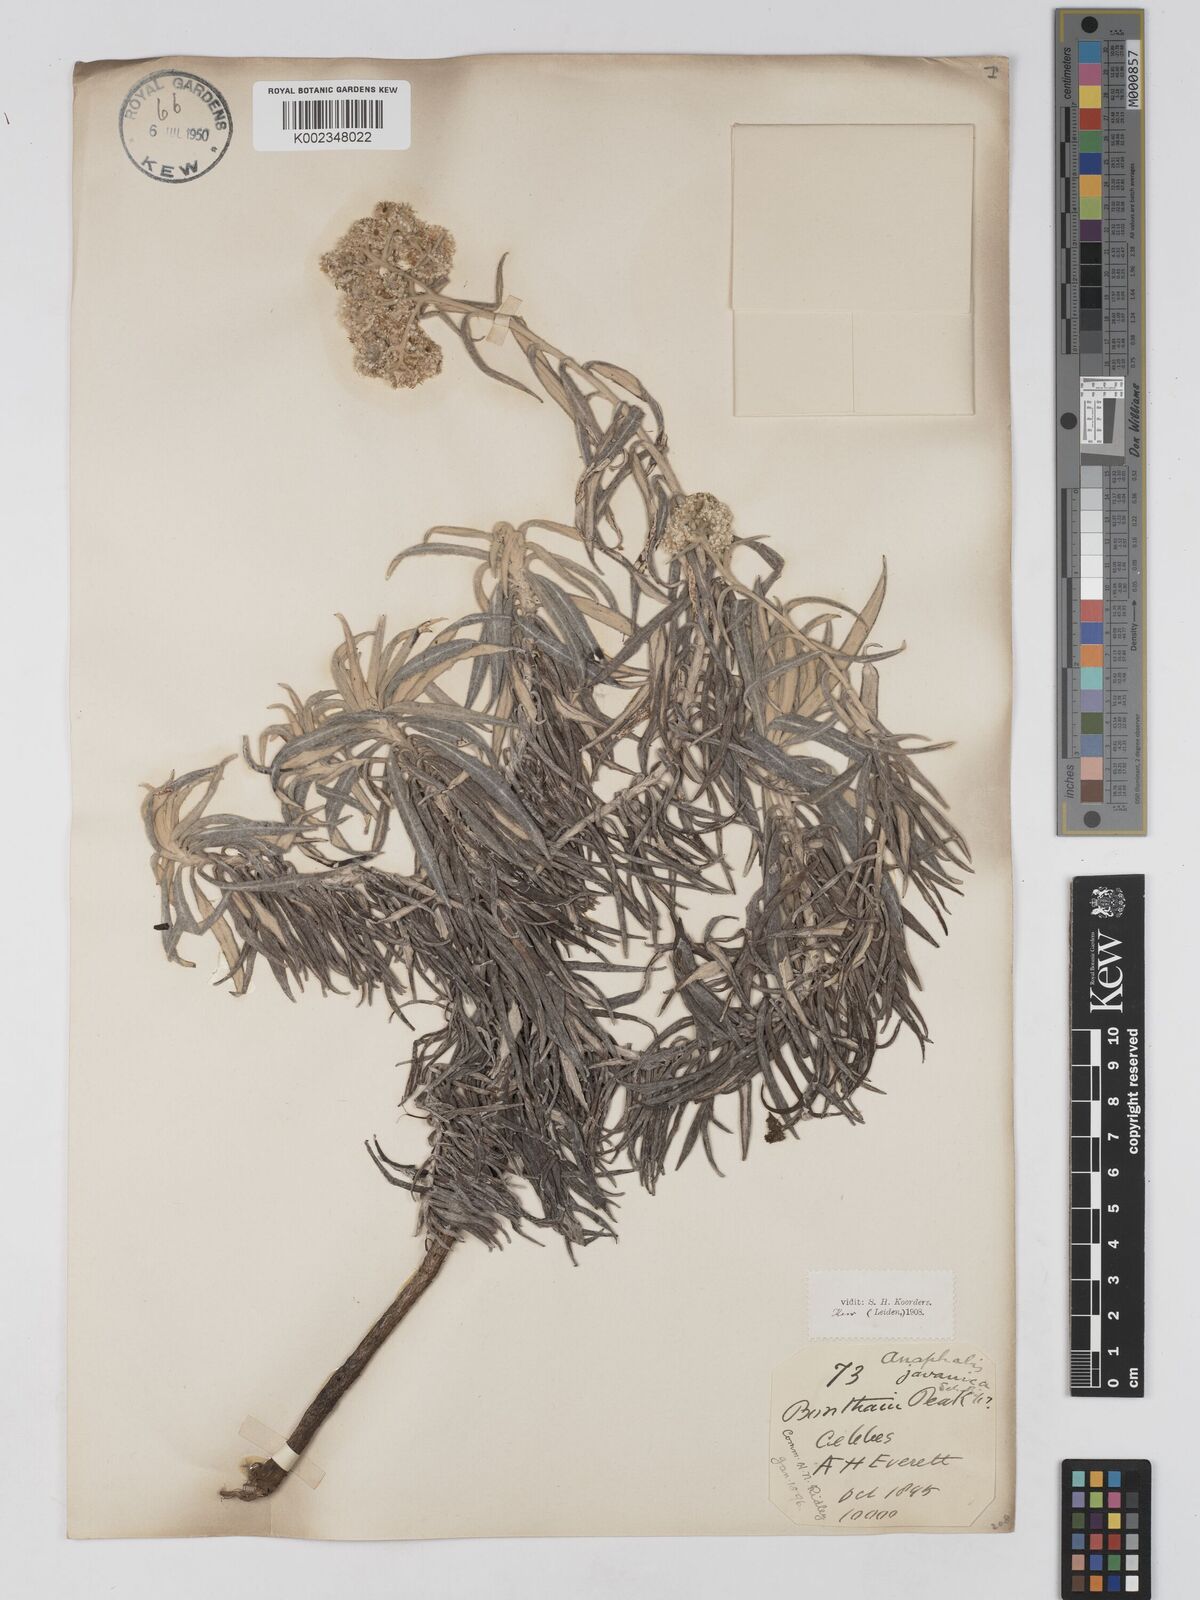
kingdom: Plantae
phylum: Tracheophyta
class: Magnoliopsida
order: Asterales
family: Asteraceae
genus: Anaphalis
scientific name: Anaphalis javanica
